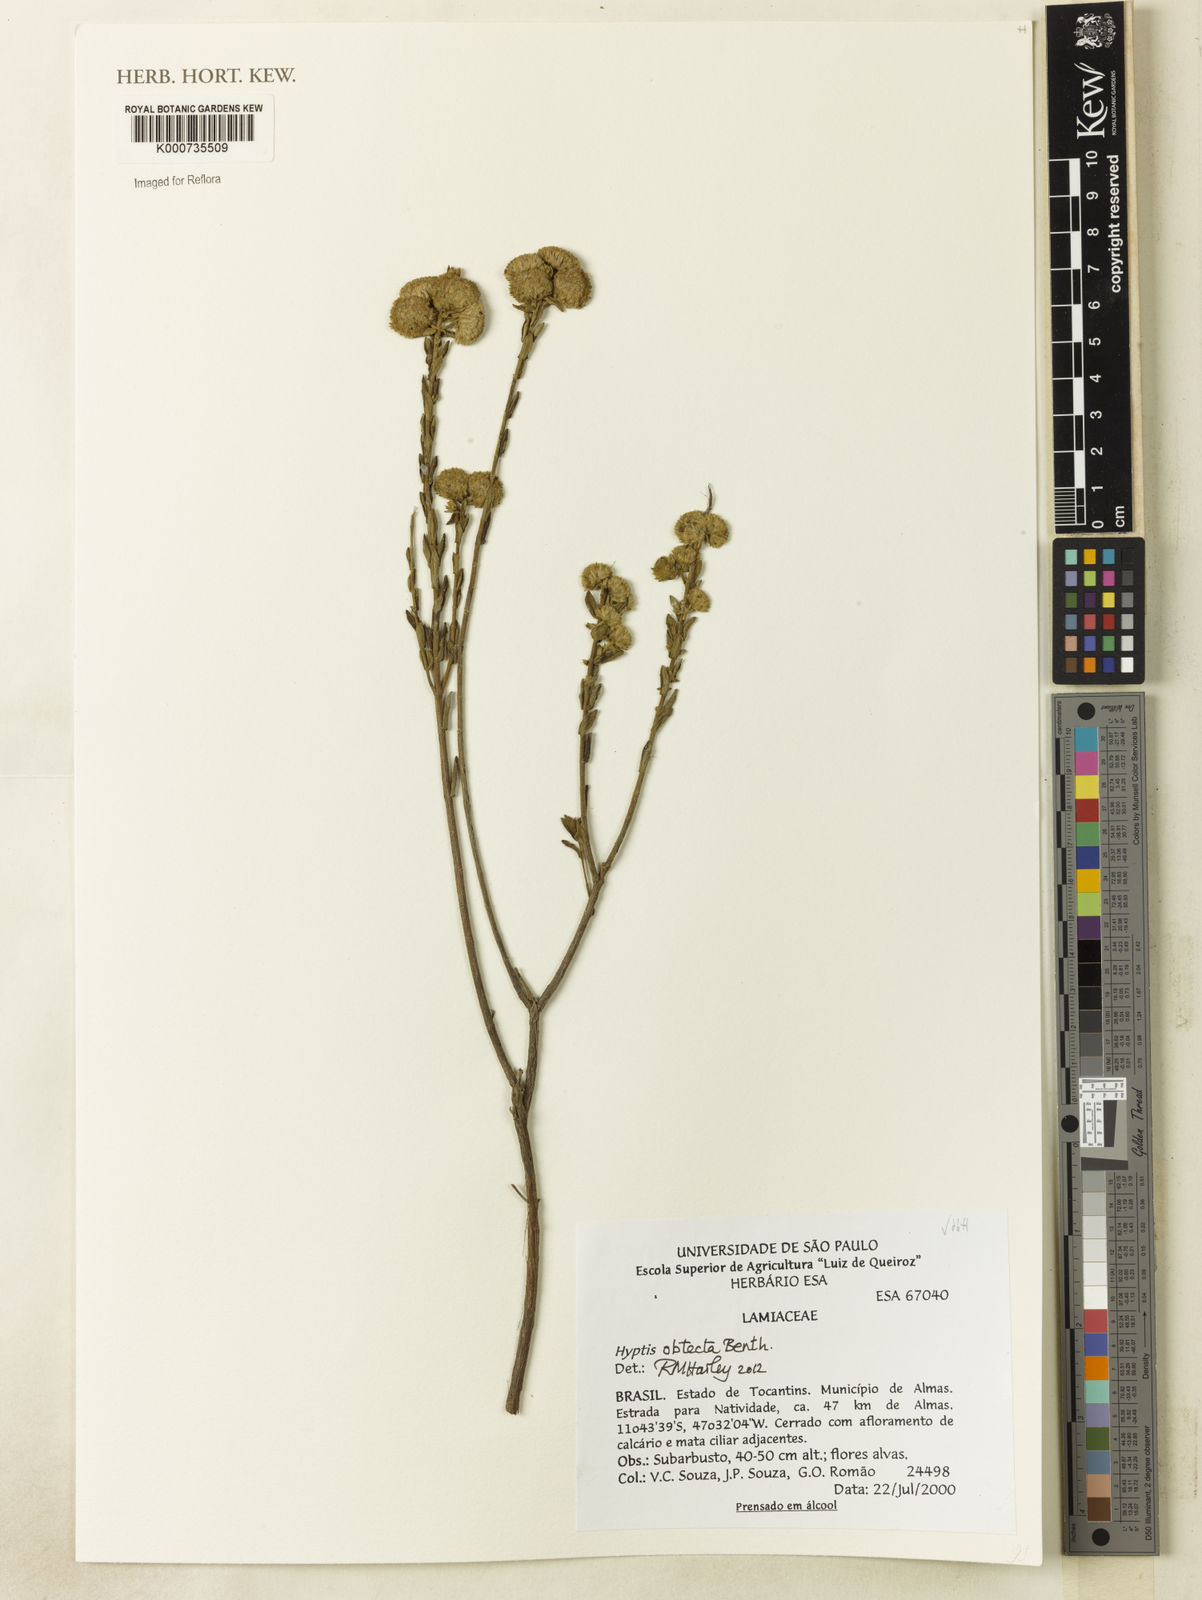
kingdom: Plantae
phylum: Tracheophyta
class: Magnoliopsida
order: Lamiales
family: Lamiaceae
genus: Hyptis
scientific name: Hyptis obtecta
